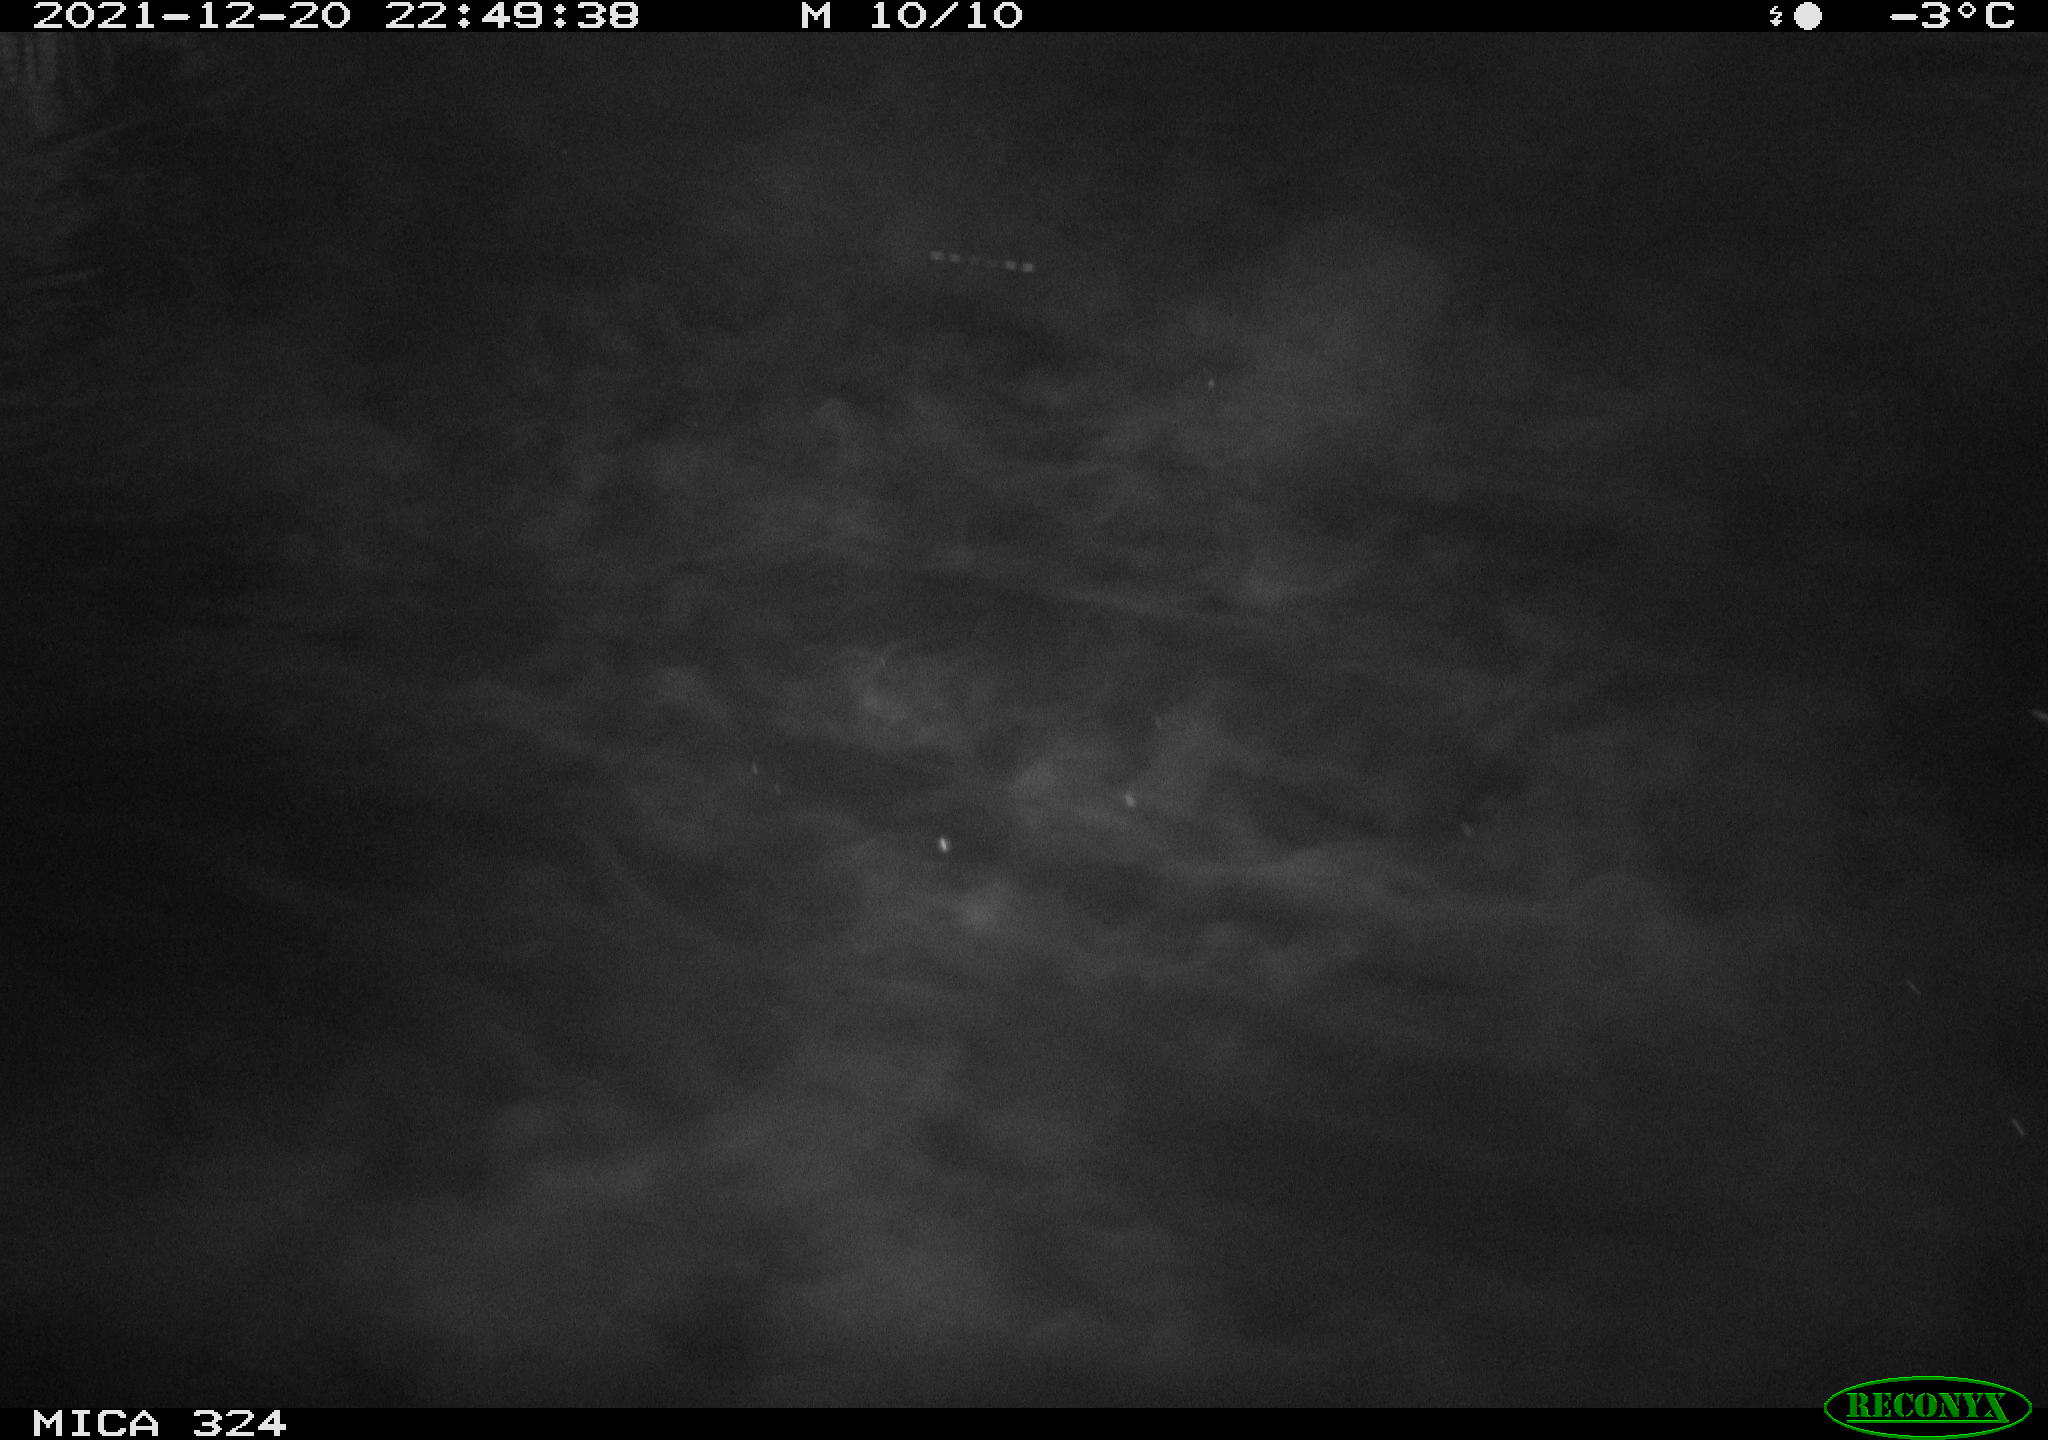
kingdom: Animalia
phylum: Chordata
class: Mammalia
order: Rodentia
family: Cricetidae
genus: Ondatra
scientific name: Ondatra zibethicus
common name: Muskrat
